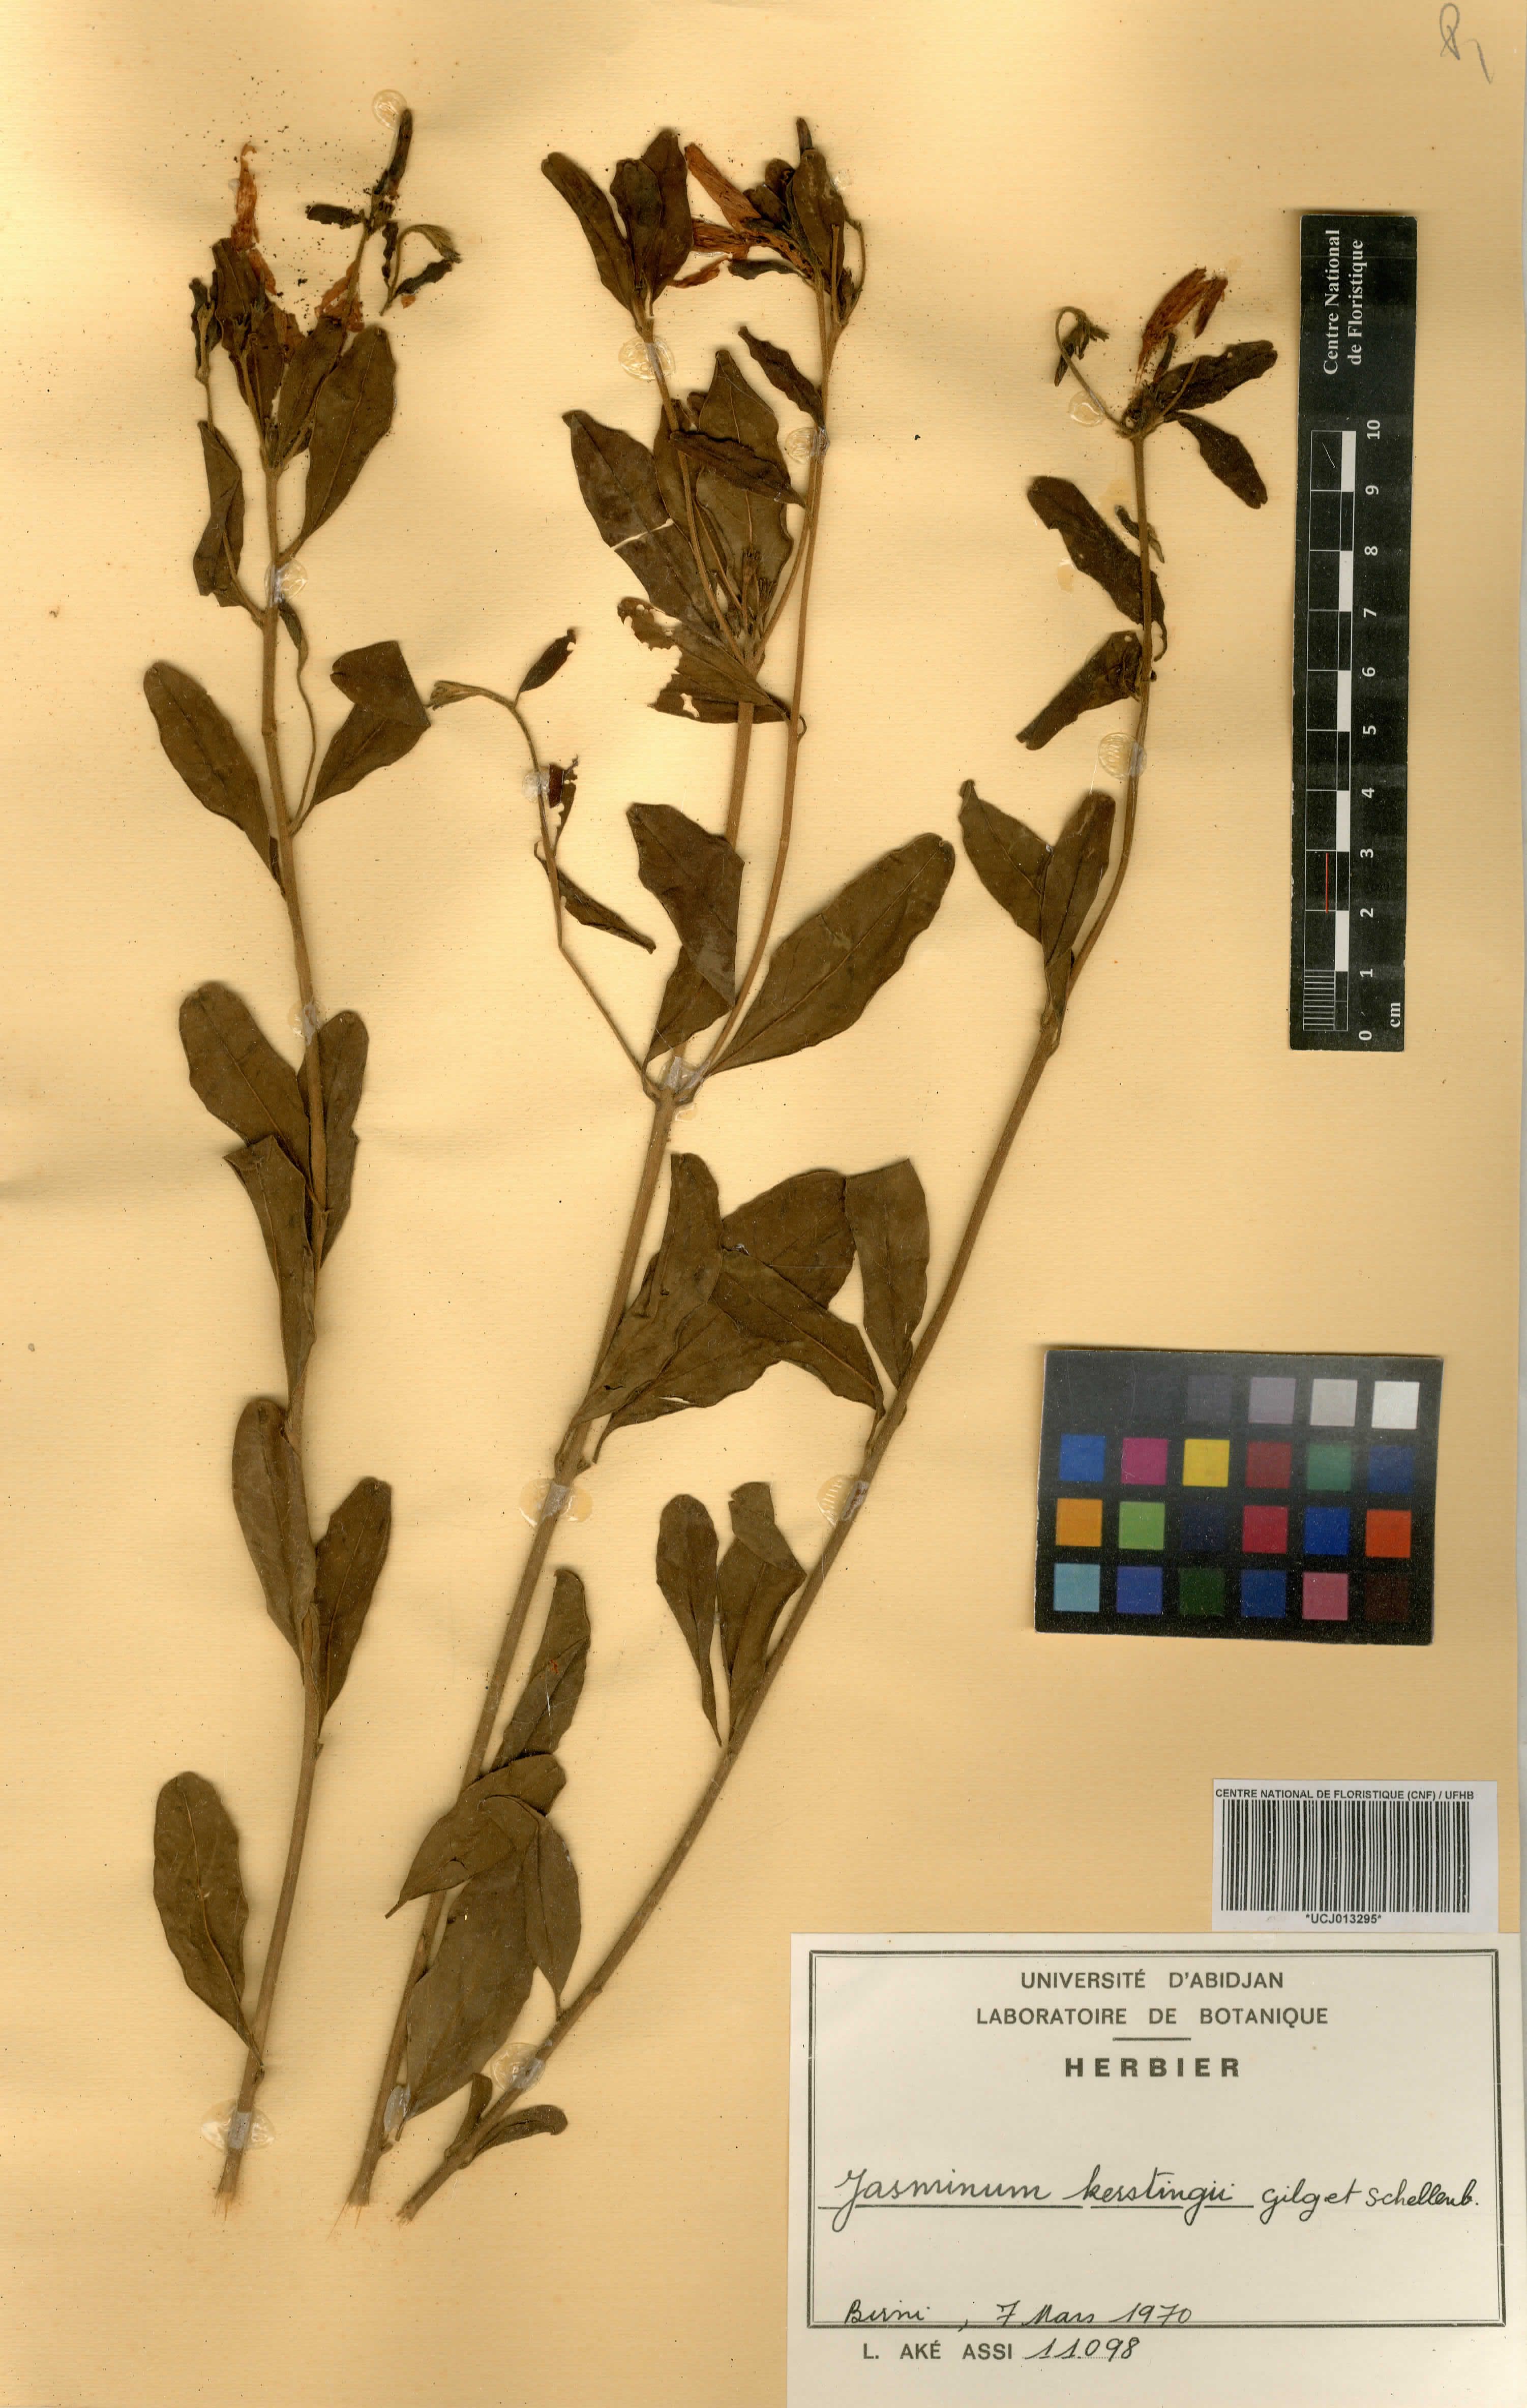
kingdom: Plantae
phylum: Tracheophyta
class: Magnoliopsida
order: Lamiales
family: Oleaceae
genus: Jasminum
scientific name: Jasminum kerstingii
